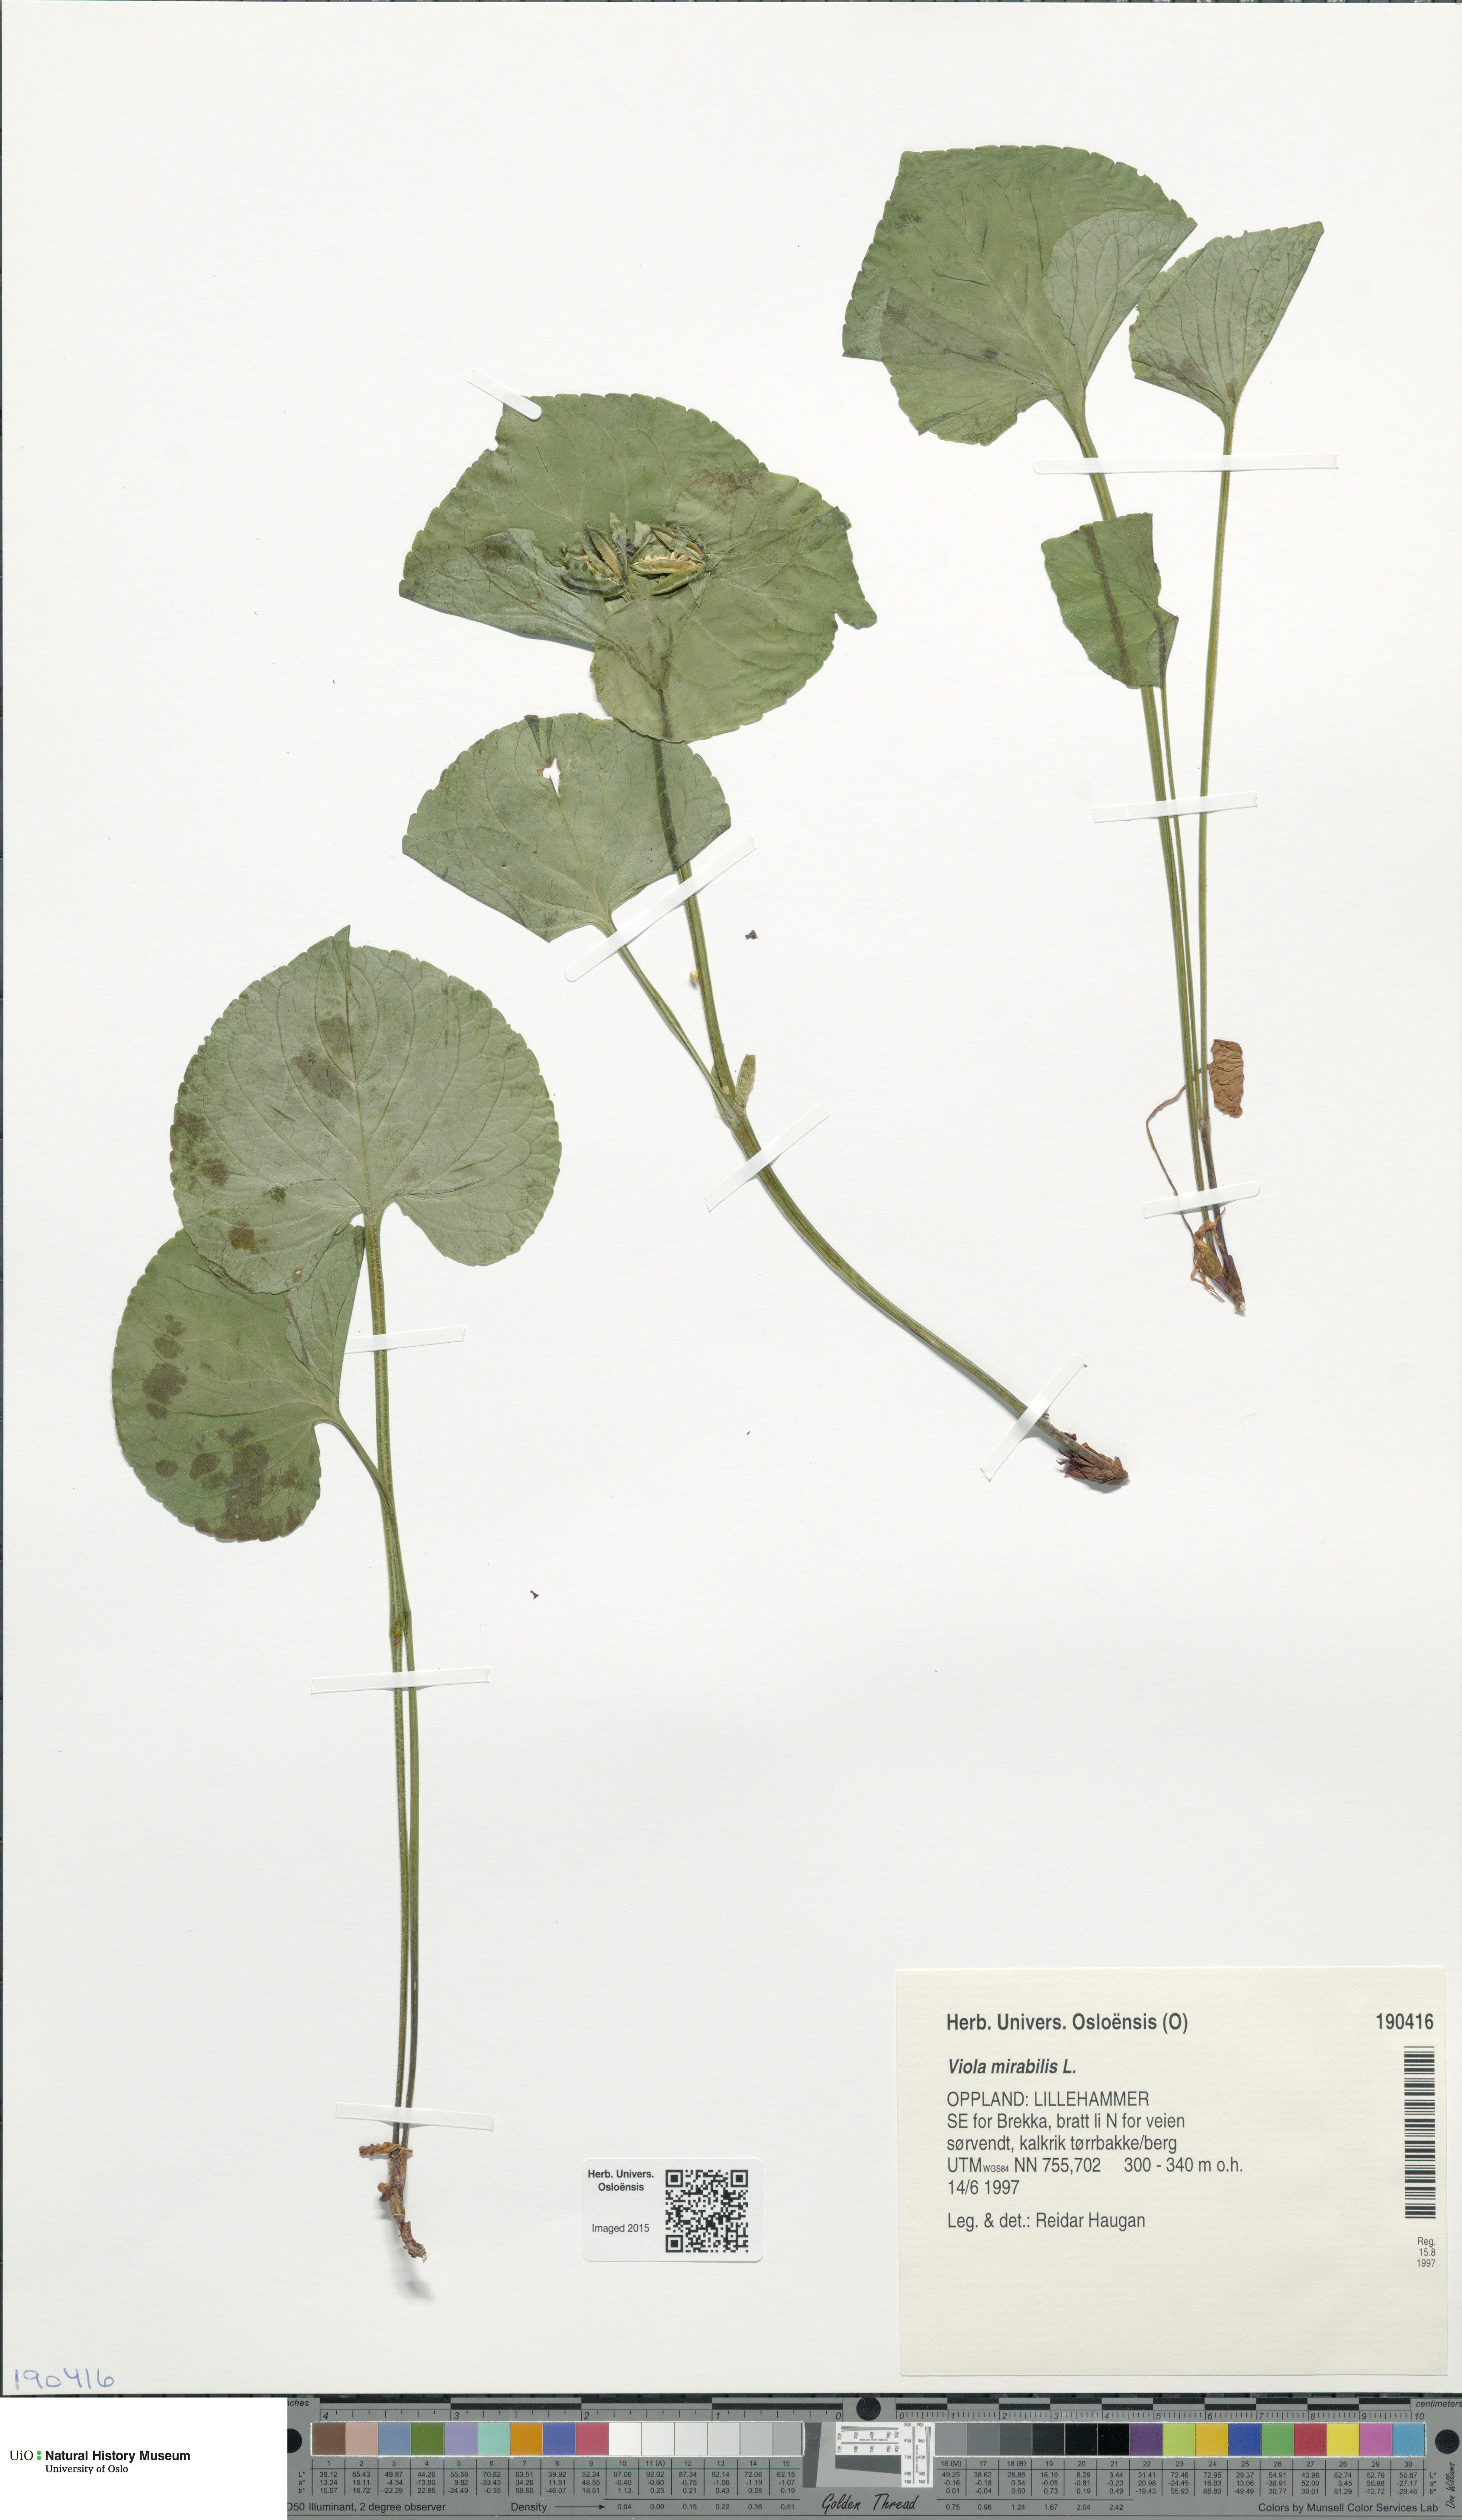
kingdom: Plantae
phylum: Tracheophyta
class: Magnoliopsida
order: Malpighiales
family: Violaceae
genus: Viola
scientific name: Viola mirabilis
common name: Wonder violet
